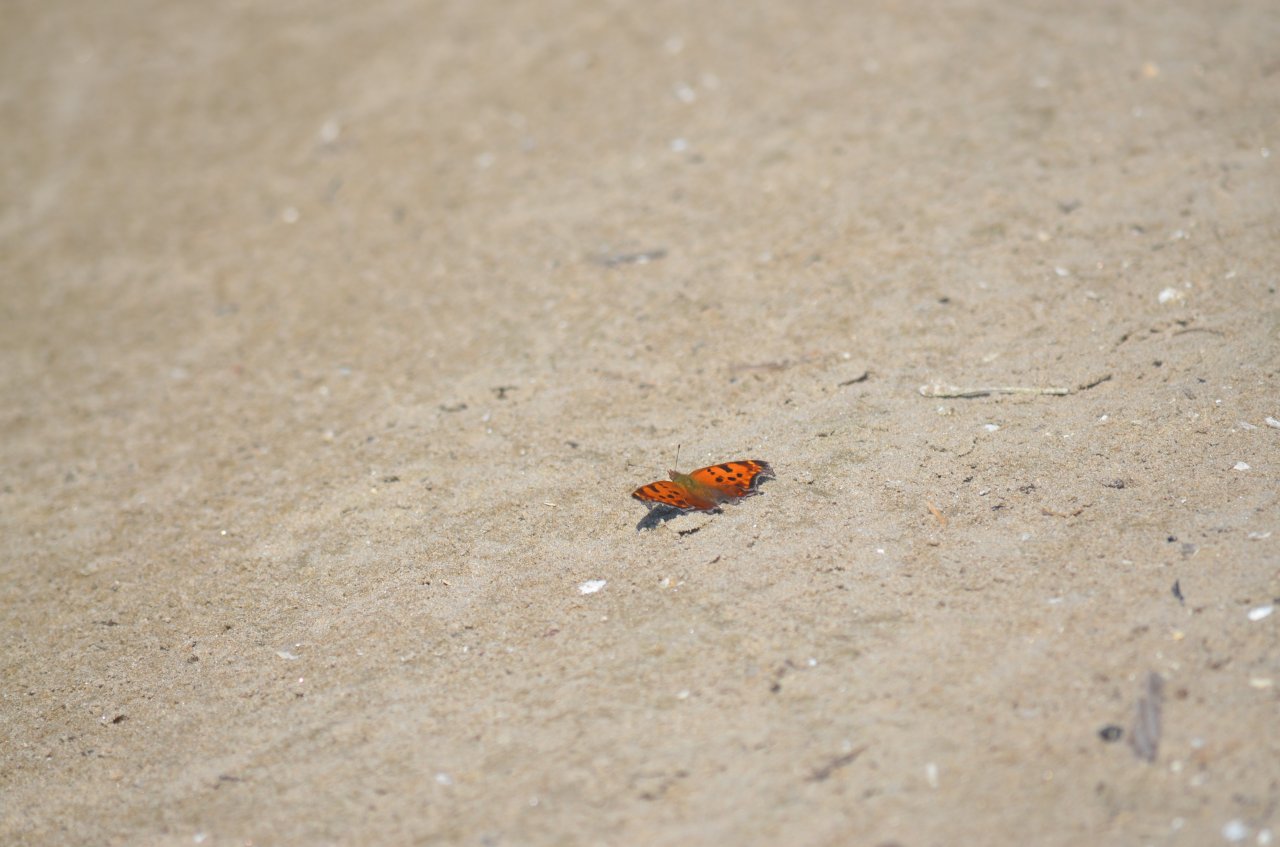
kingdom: Animalia
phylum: Arthropoda
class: Insecta
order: Lepidoptera
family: Nymphalidae
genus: Polygonia
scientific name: Polygonia comma
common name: Eastern Comma
